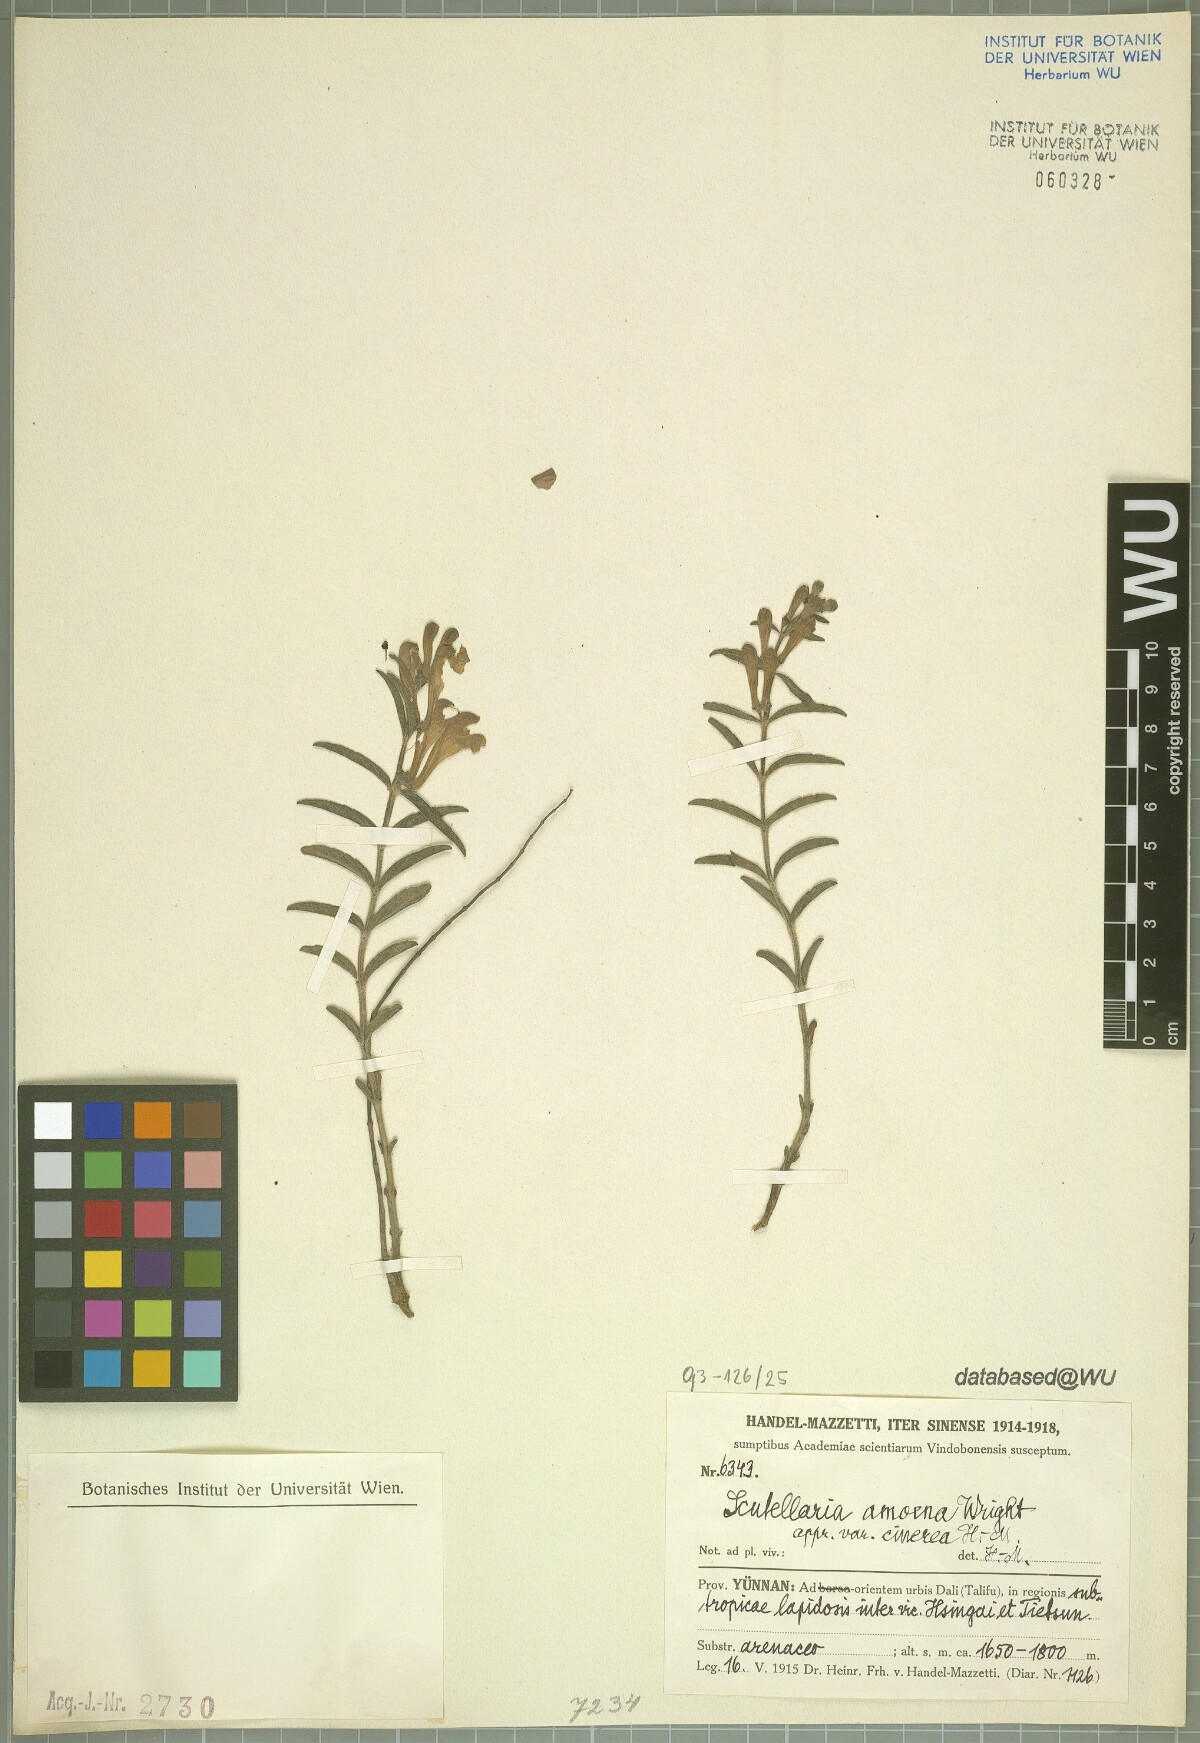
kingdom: Plantae
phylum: Tracheophyta
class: Magnoliopsida
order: Lamiales
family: Lamiaceae
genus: Scutellaria
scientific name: Scutellaria amoena
